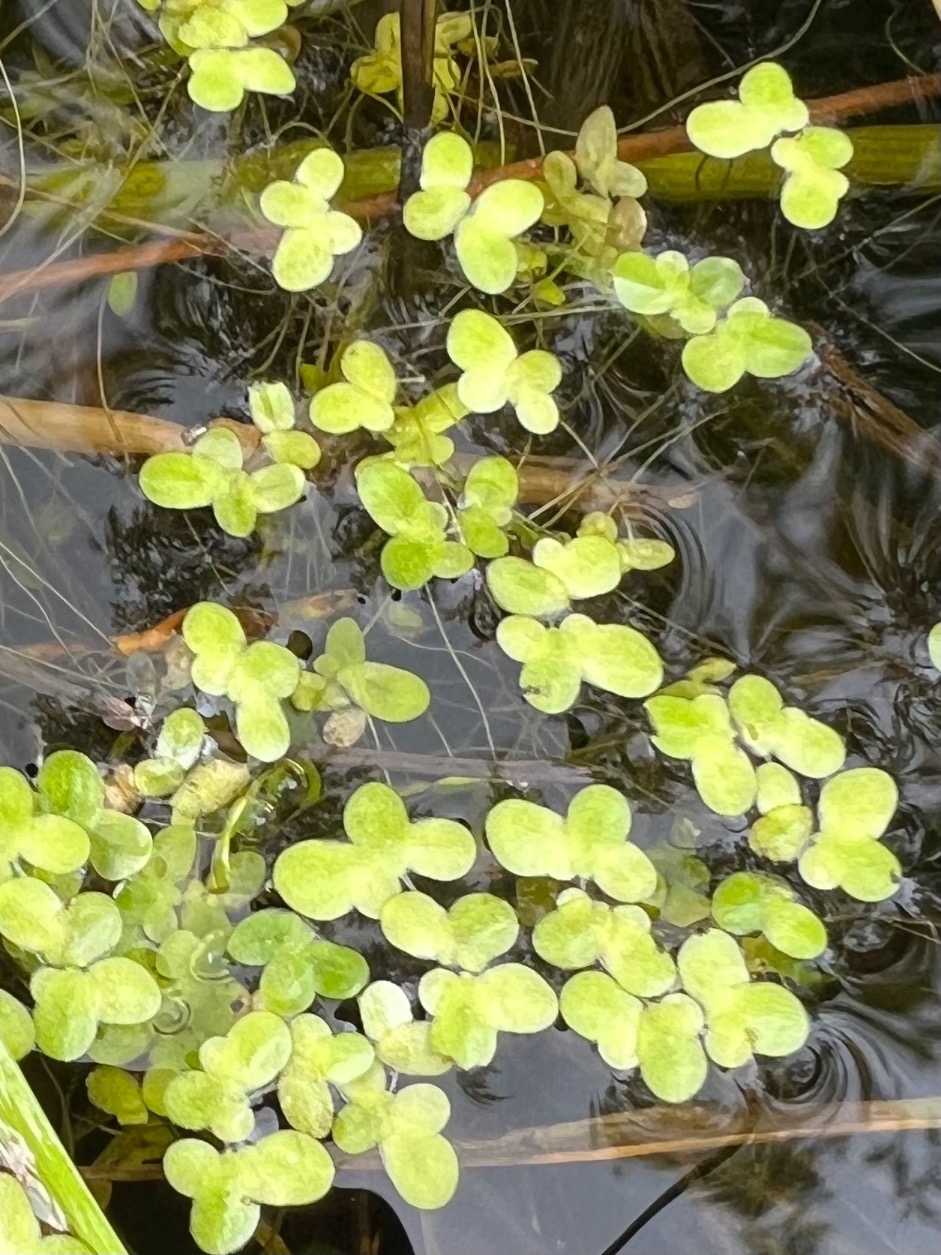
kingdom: Plantae
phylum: Tracheophyta
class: Liliopsida
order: Alismatales
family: Araceae
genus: Lemna
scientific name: Lemna minor
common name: Liden andemad
